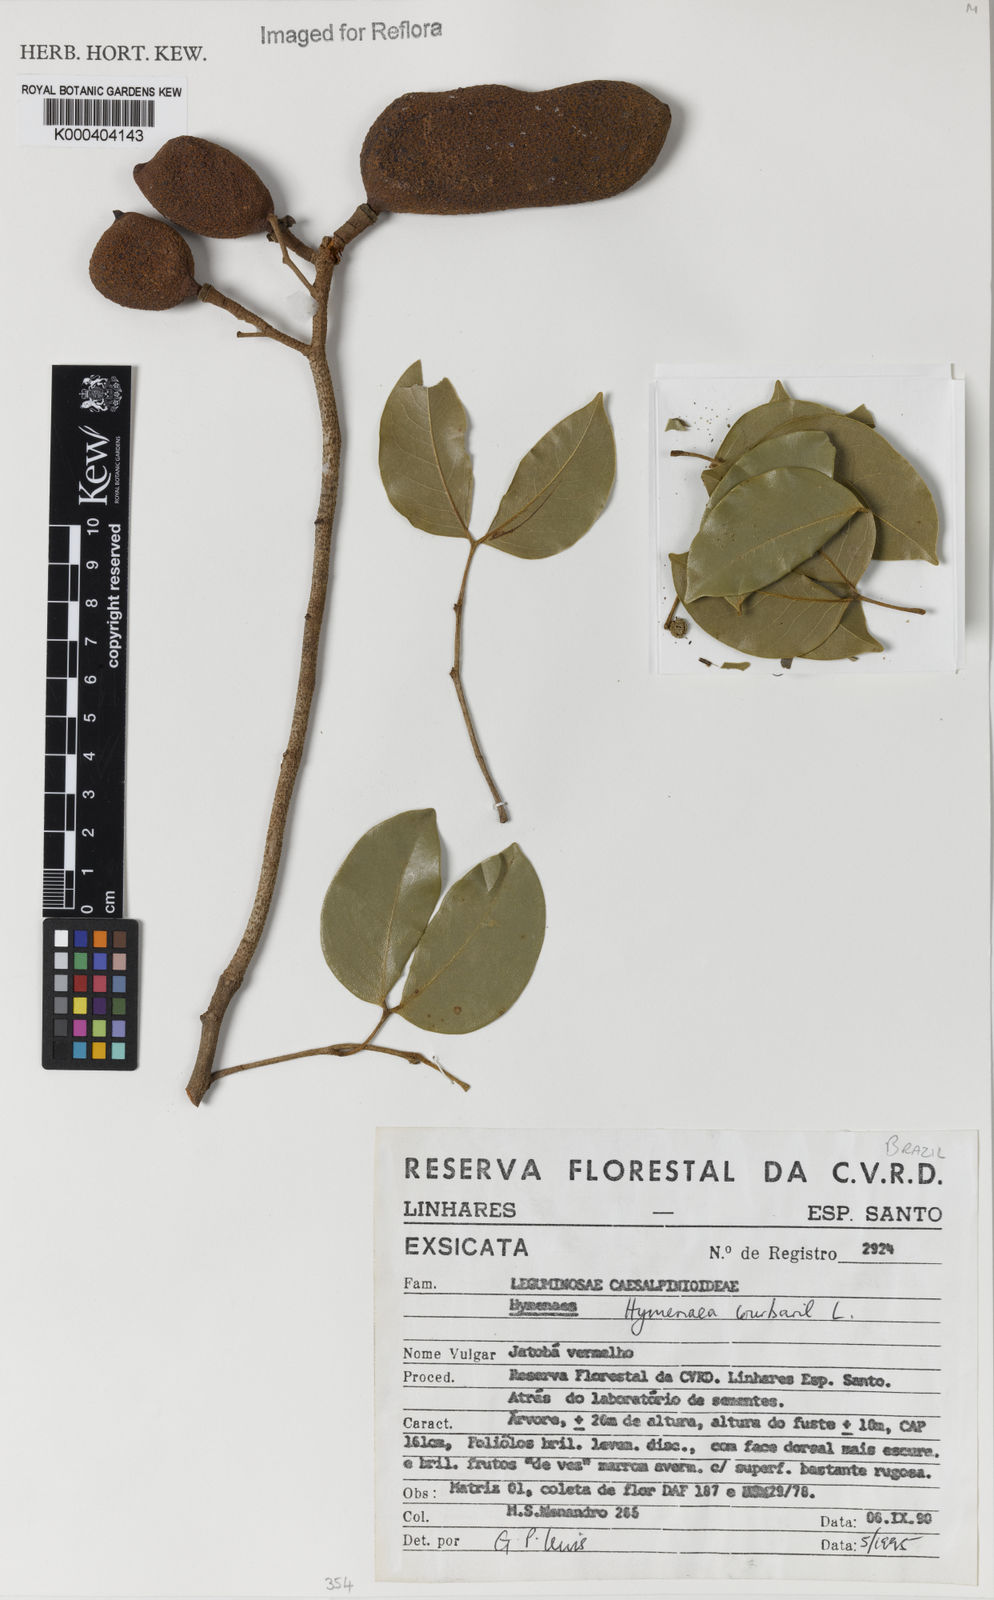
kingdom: Plantae
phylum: Tracheophyta
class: Magnoliopsida
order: Fabales
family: Fabaceae
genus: Hymenaea
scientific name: Hymenaea courbaril
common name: Brazilian copal
